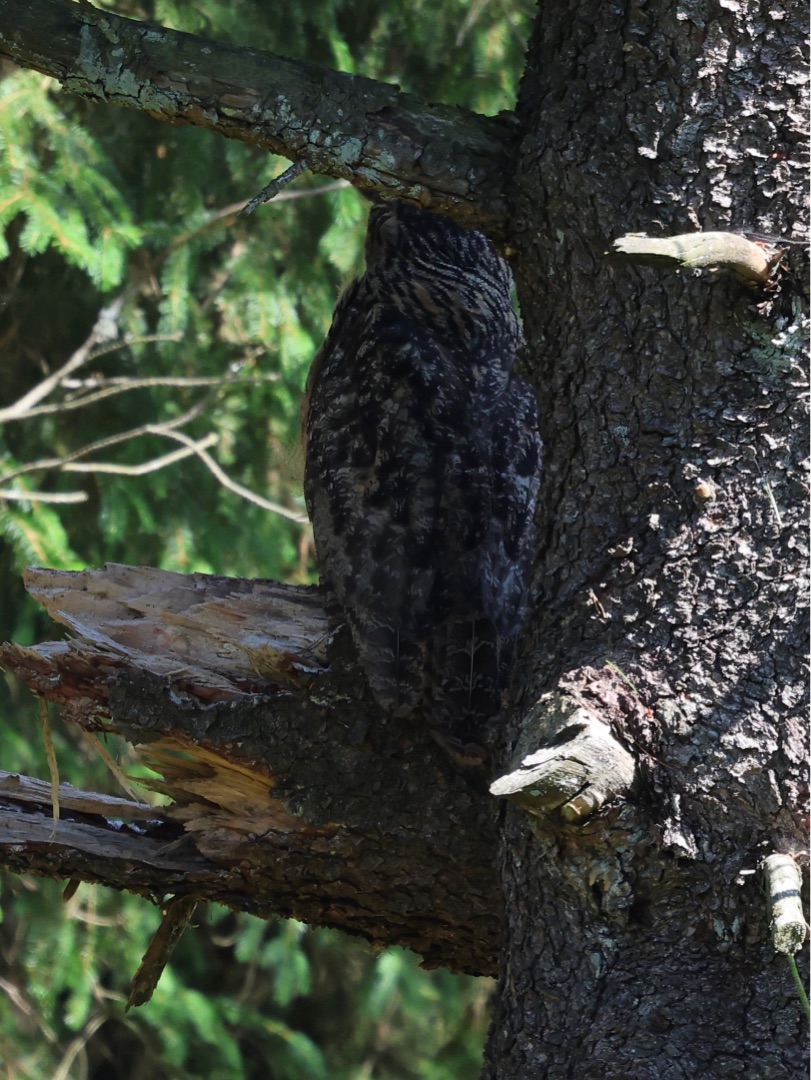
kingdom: Animalia
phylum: Chordata
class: Aves
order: Strigiformes
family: Strigidae
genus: Bubo
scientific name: Bubo bubo
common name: Stor hornugle
